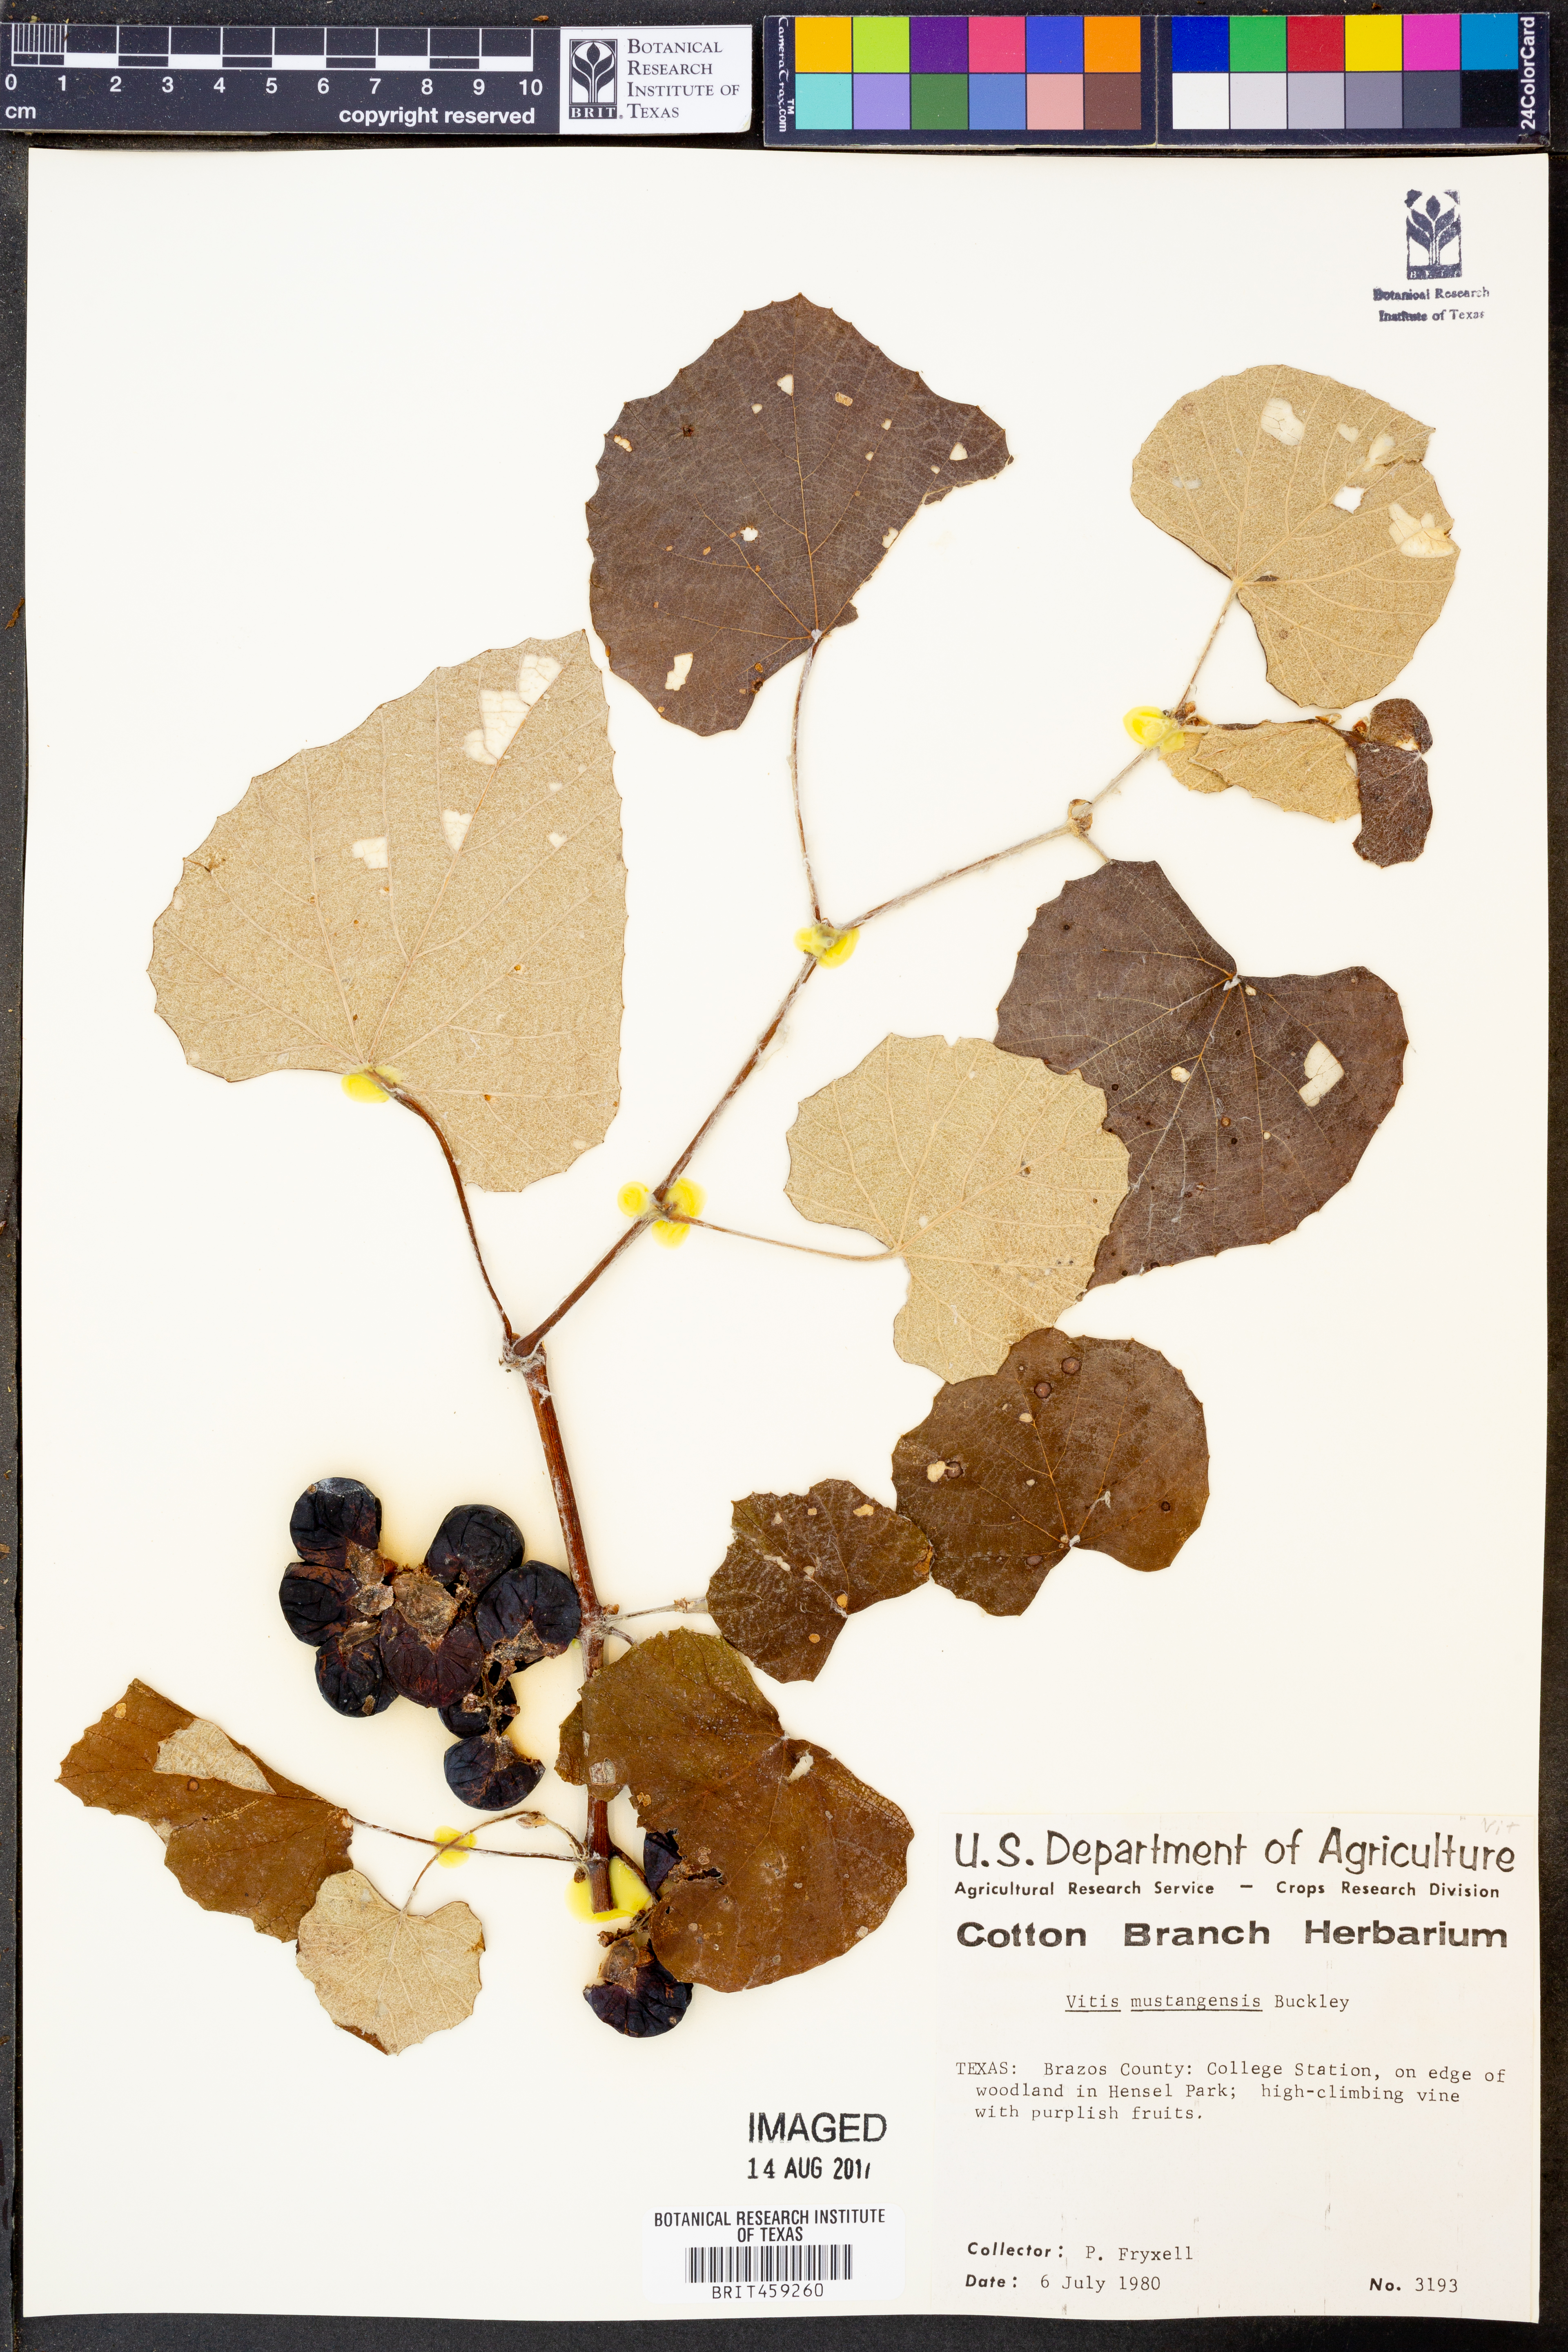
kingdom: Plantae
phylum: Tracheophyta
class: Magnoliopsida
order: Vitales
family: Vitaceae
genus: Vitis
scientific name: Vitis mustangensis
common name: Mustang grape
